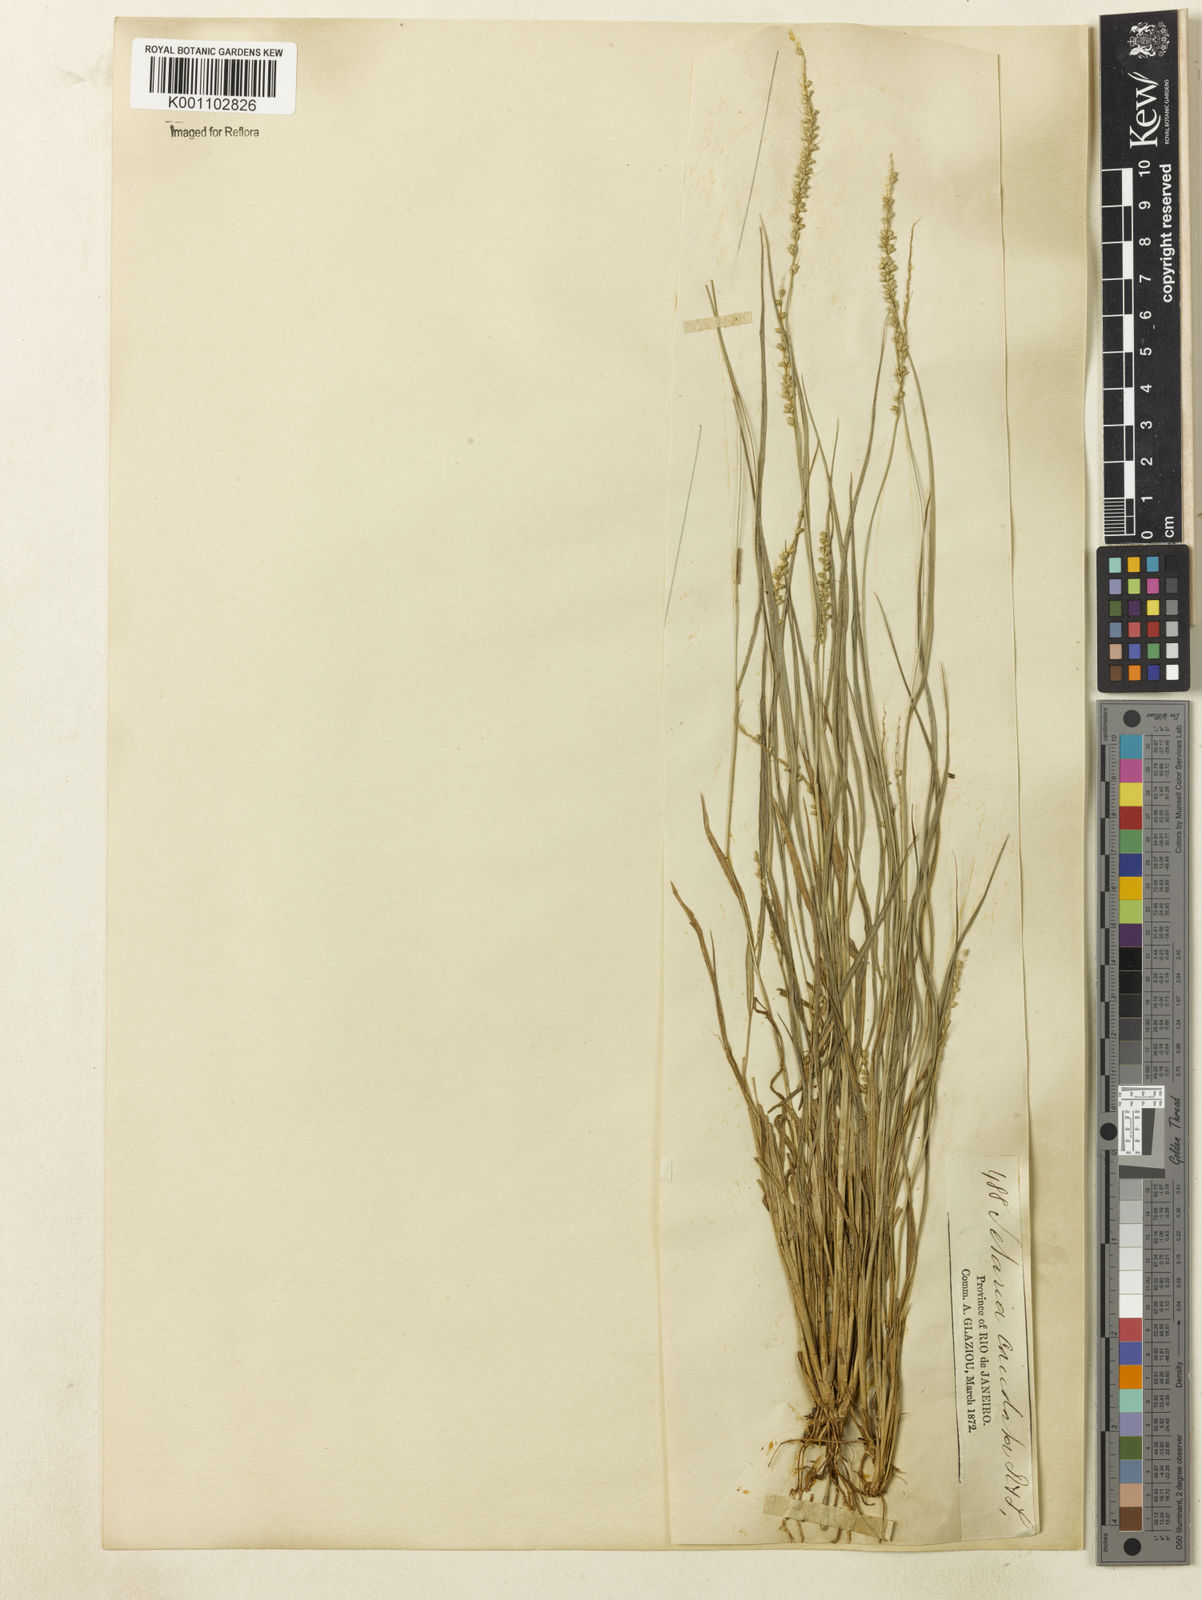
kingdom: Plantae
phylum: Tracheophyta
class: Liliopsida
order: Poales
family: Poaceae
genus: Setaria
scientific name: Setaria setosa
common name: West indies bristle grass
